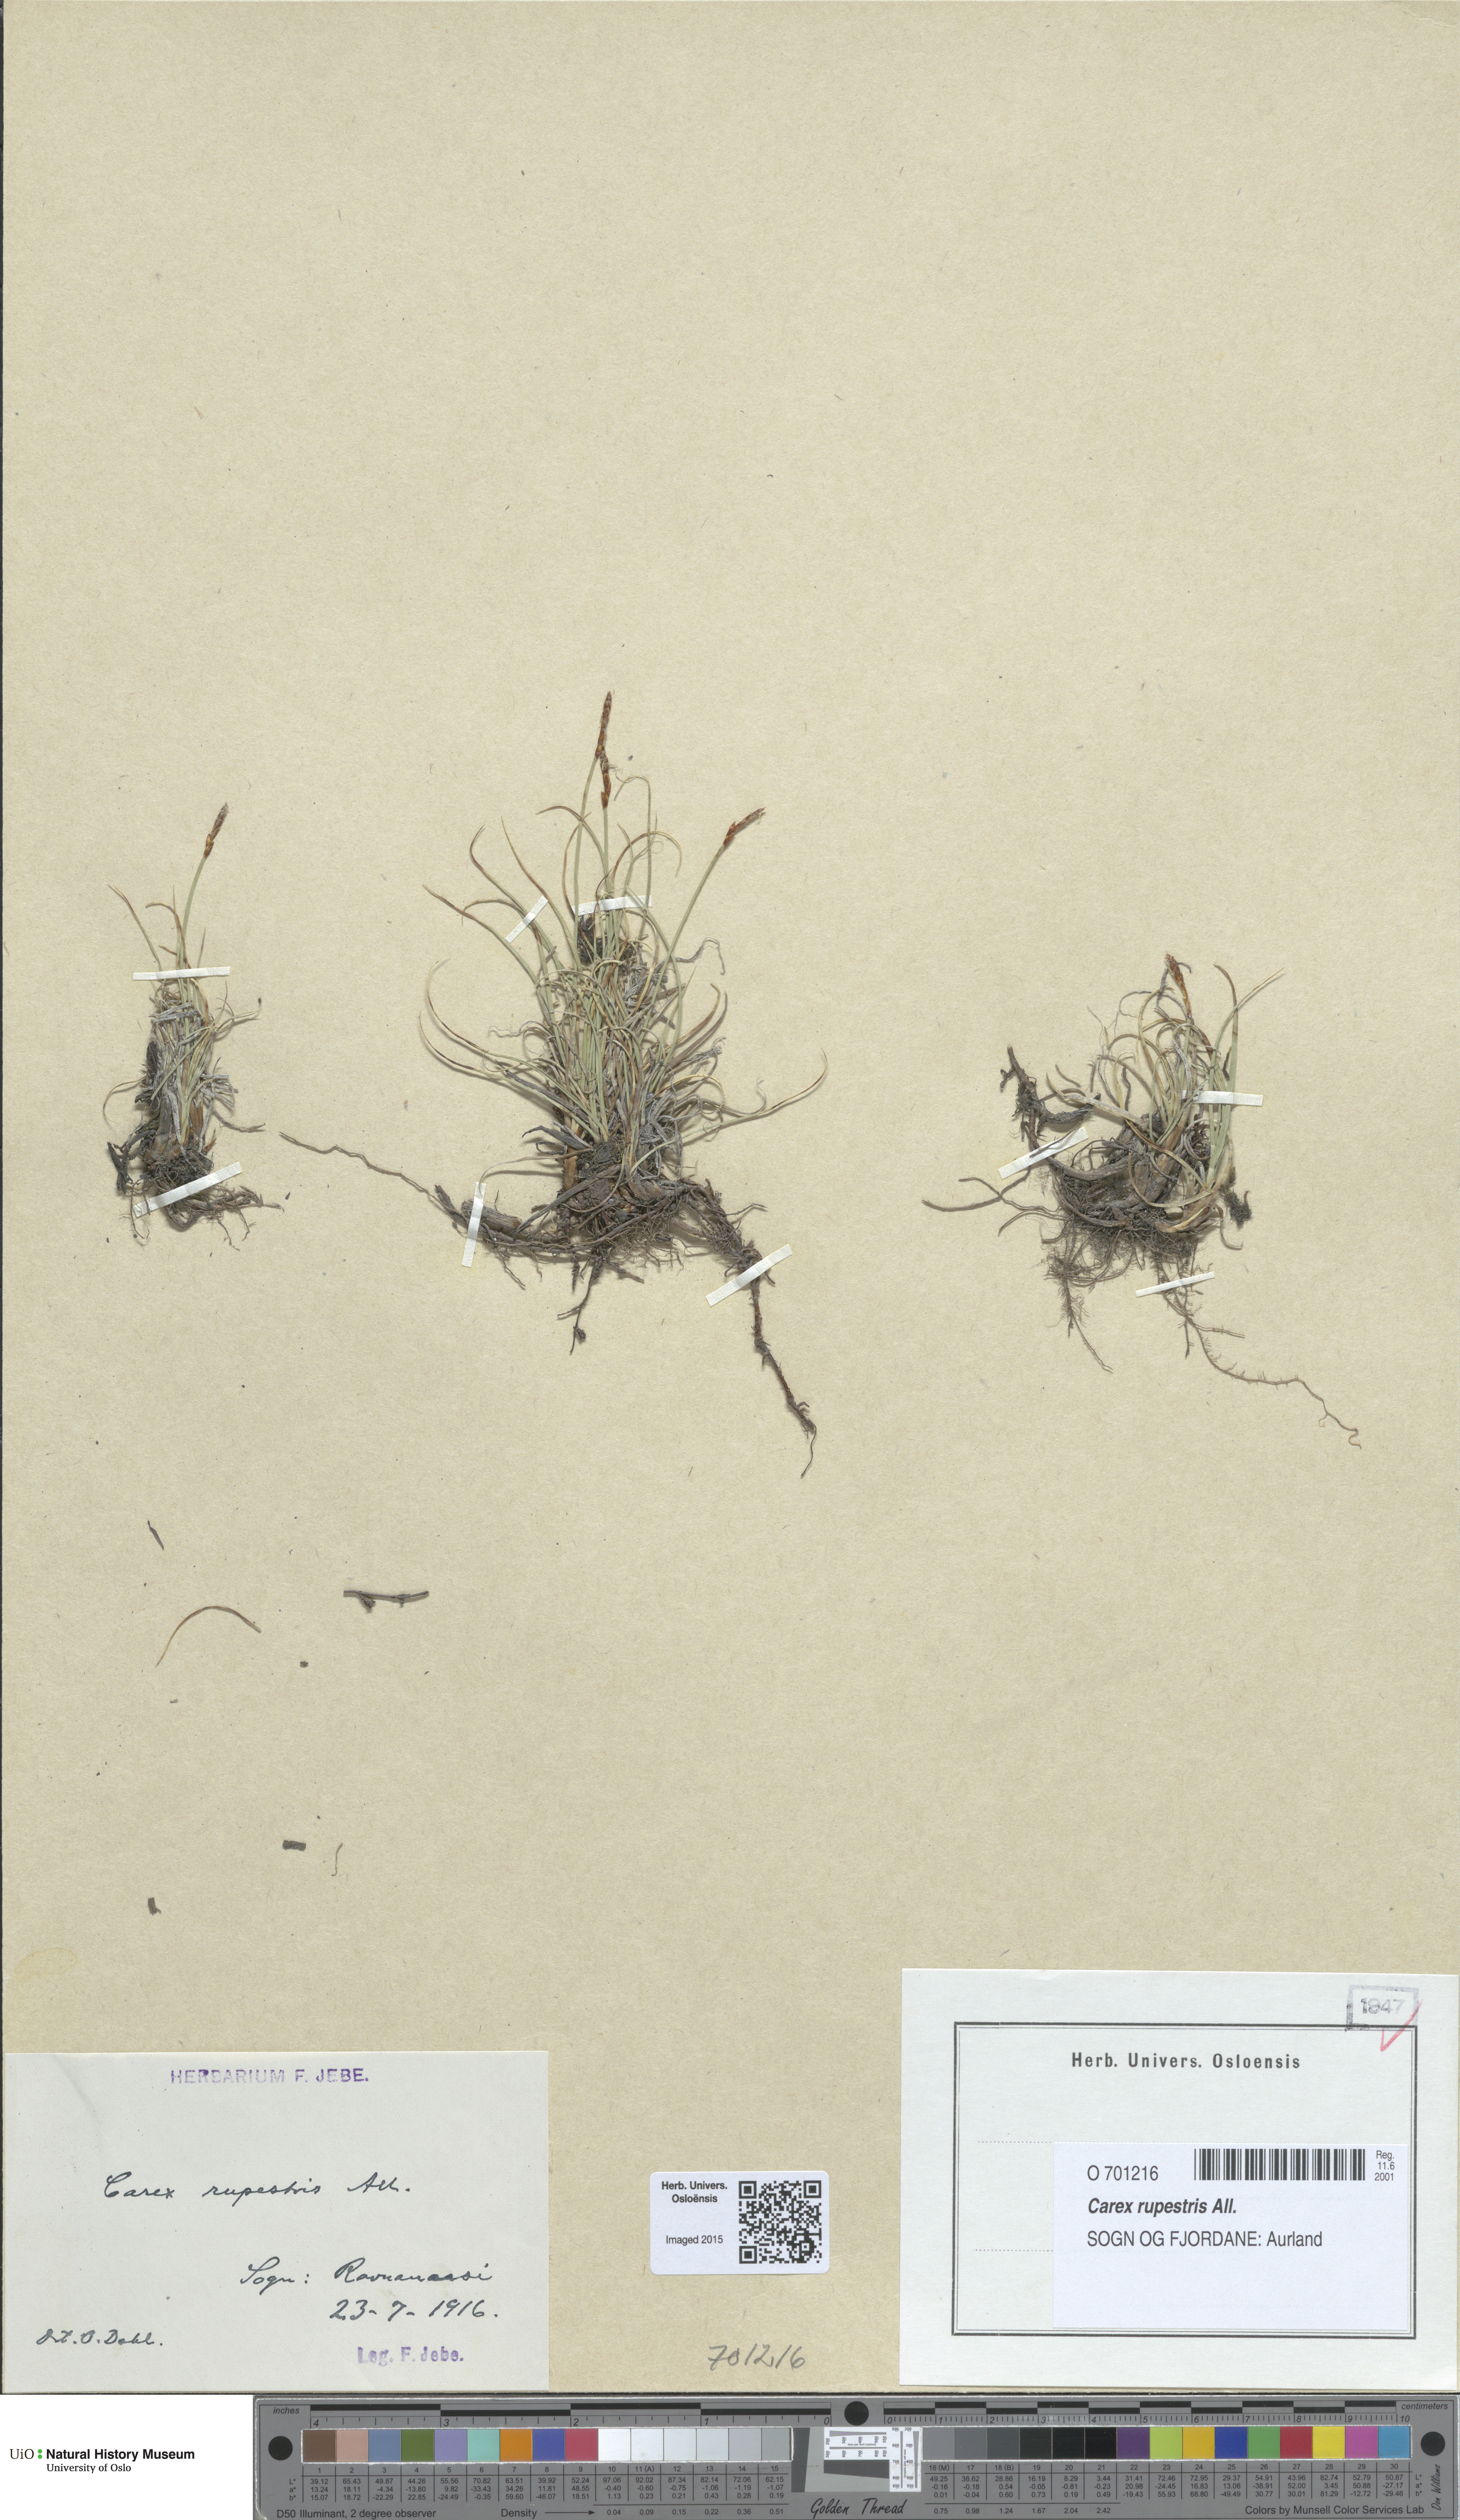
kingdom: Plantae
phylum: Tracheophyta
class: Liliopsida
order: Poales
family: Cyperaceae
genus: Carex
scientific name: Carex rupestris
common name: Rock sedge
